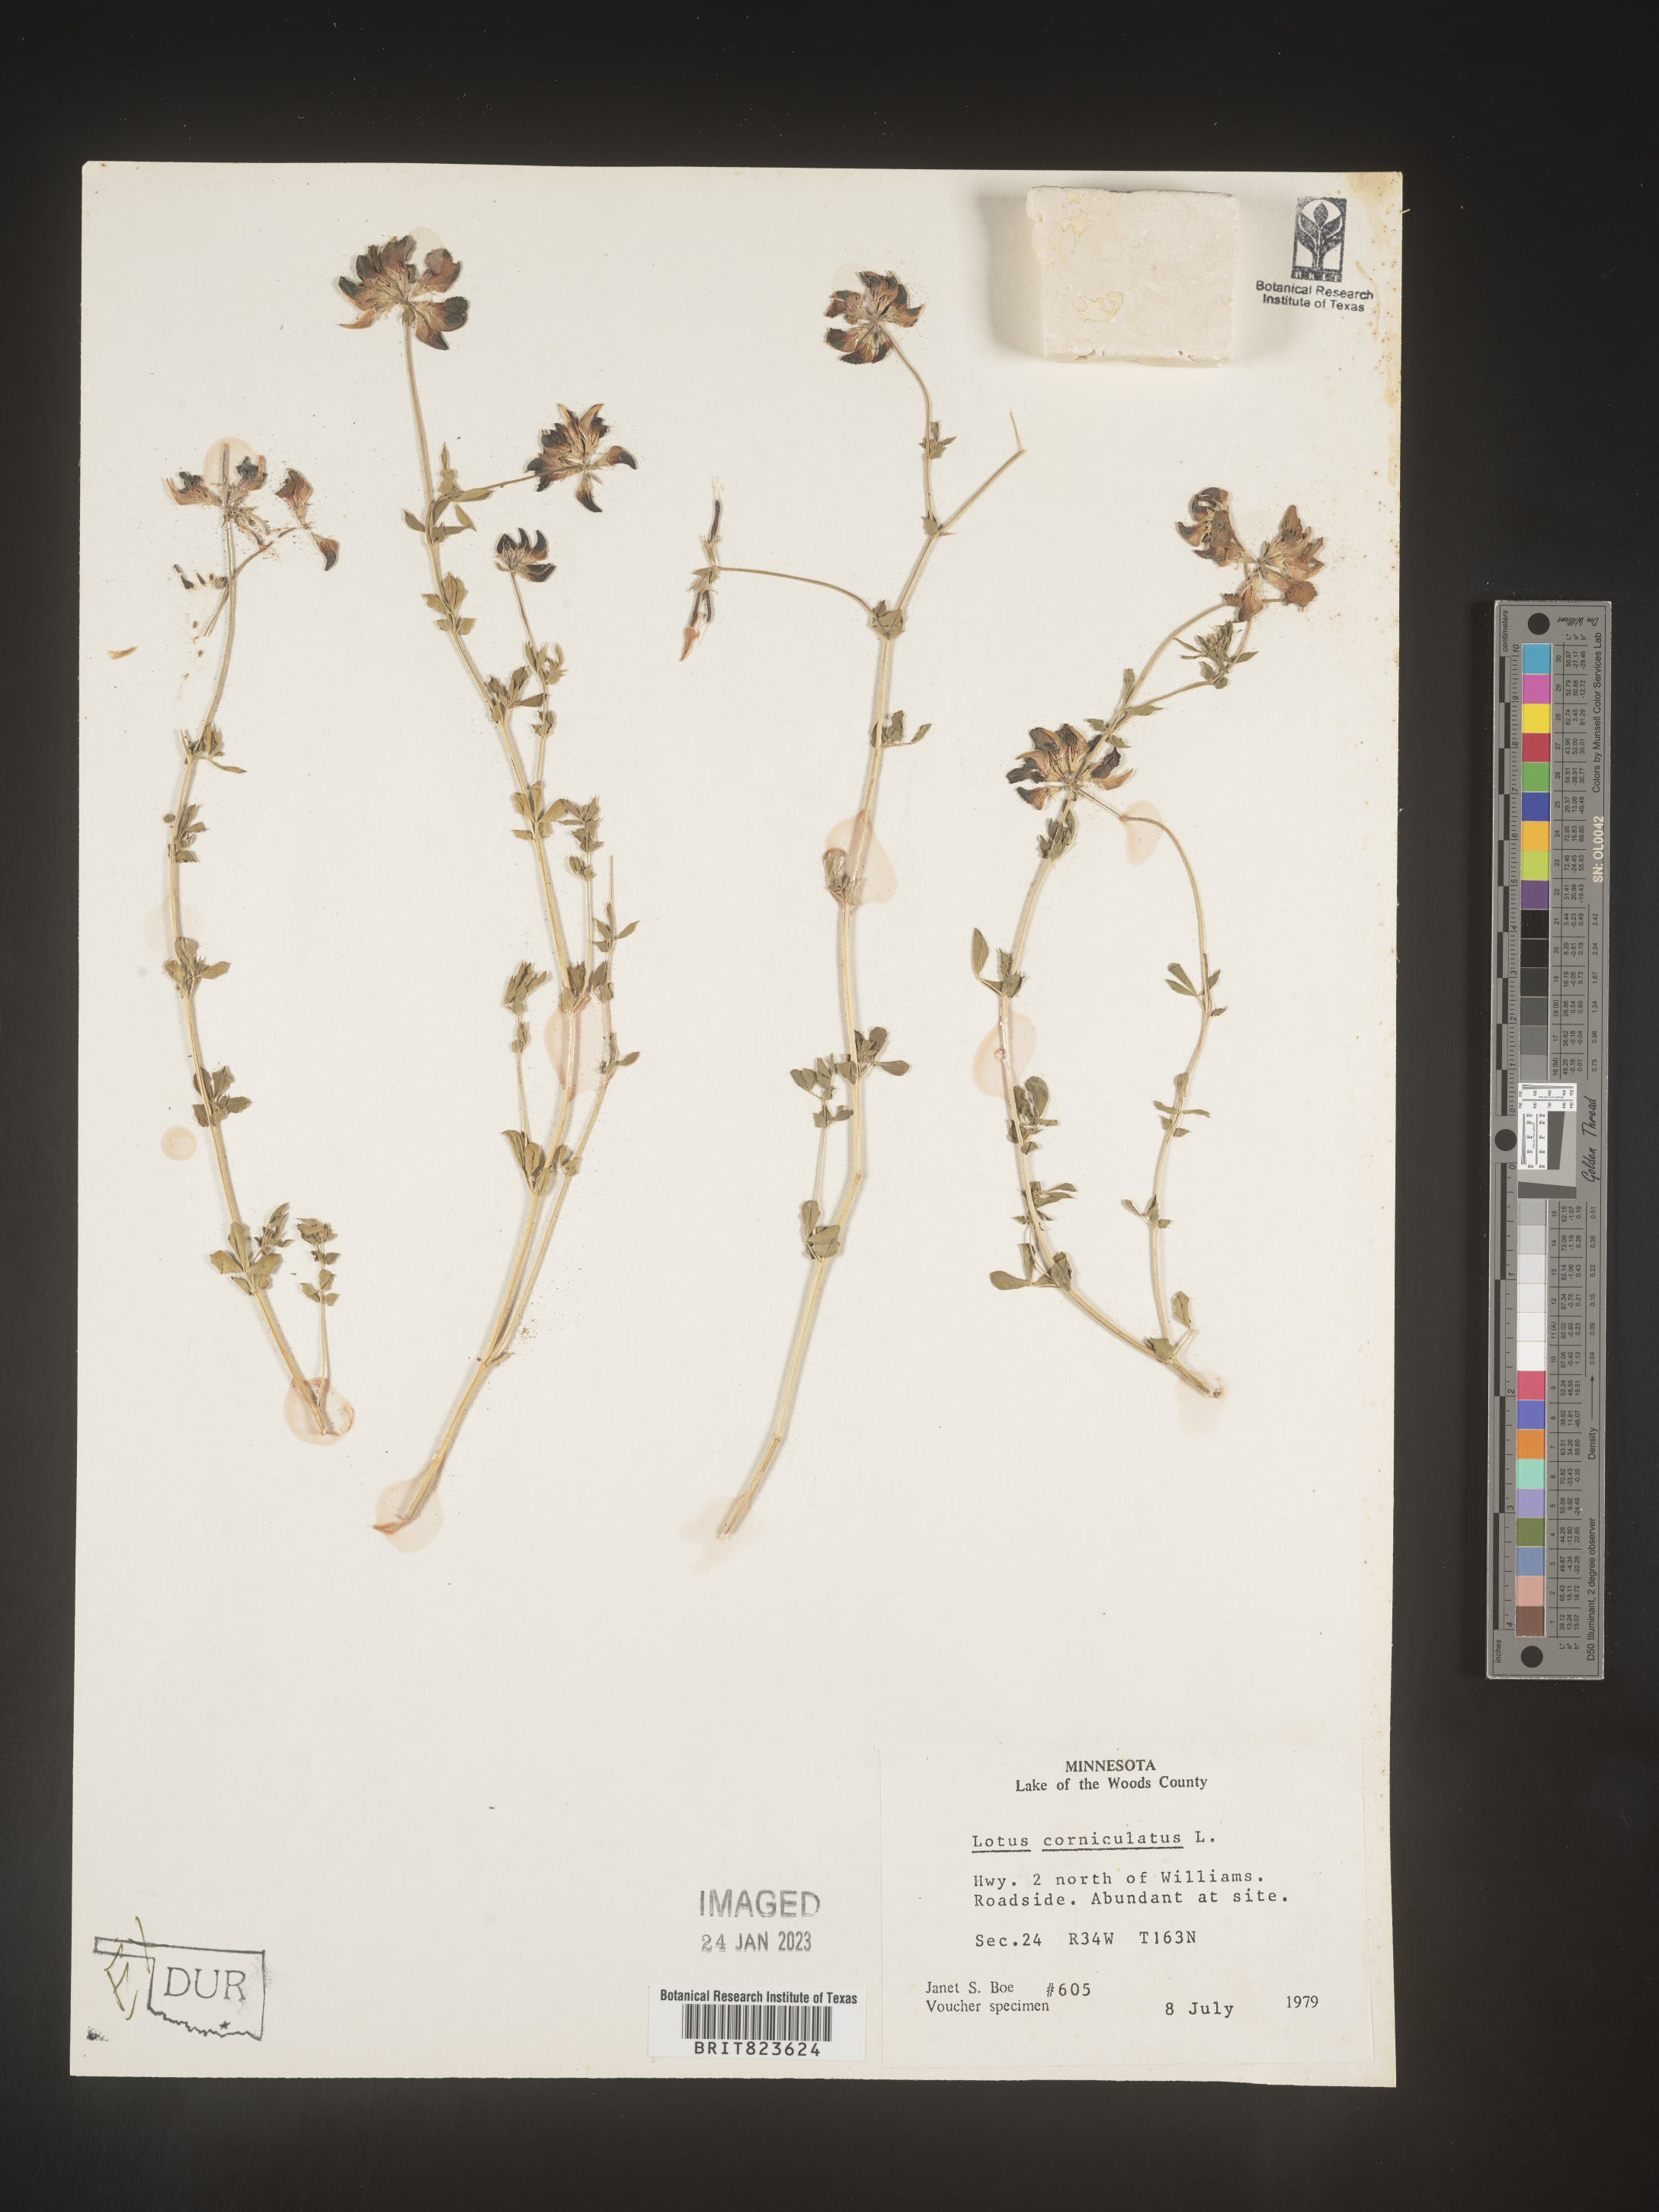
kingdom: Plantae
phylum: Tracheophyta
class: Magnoliopsida
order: Fabales
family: Fabaceae
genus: Lotus
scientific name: Lotus corniculatus
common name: Common bird's-foot-trefoil
